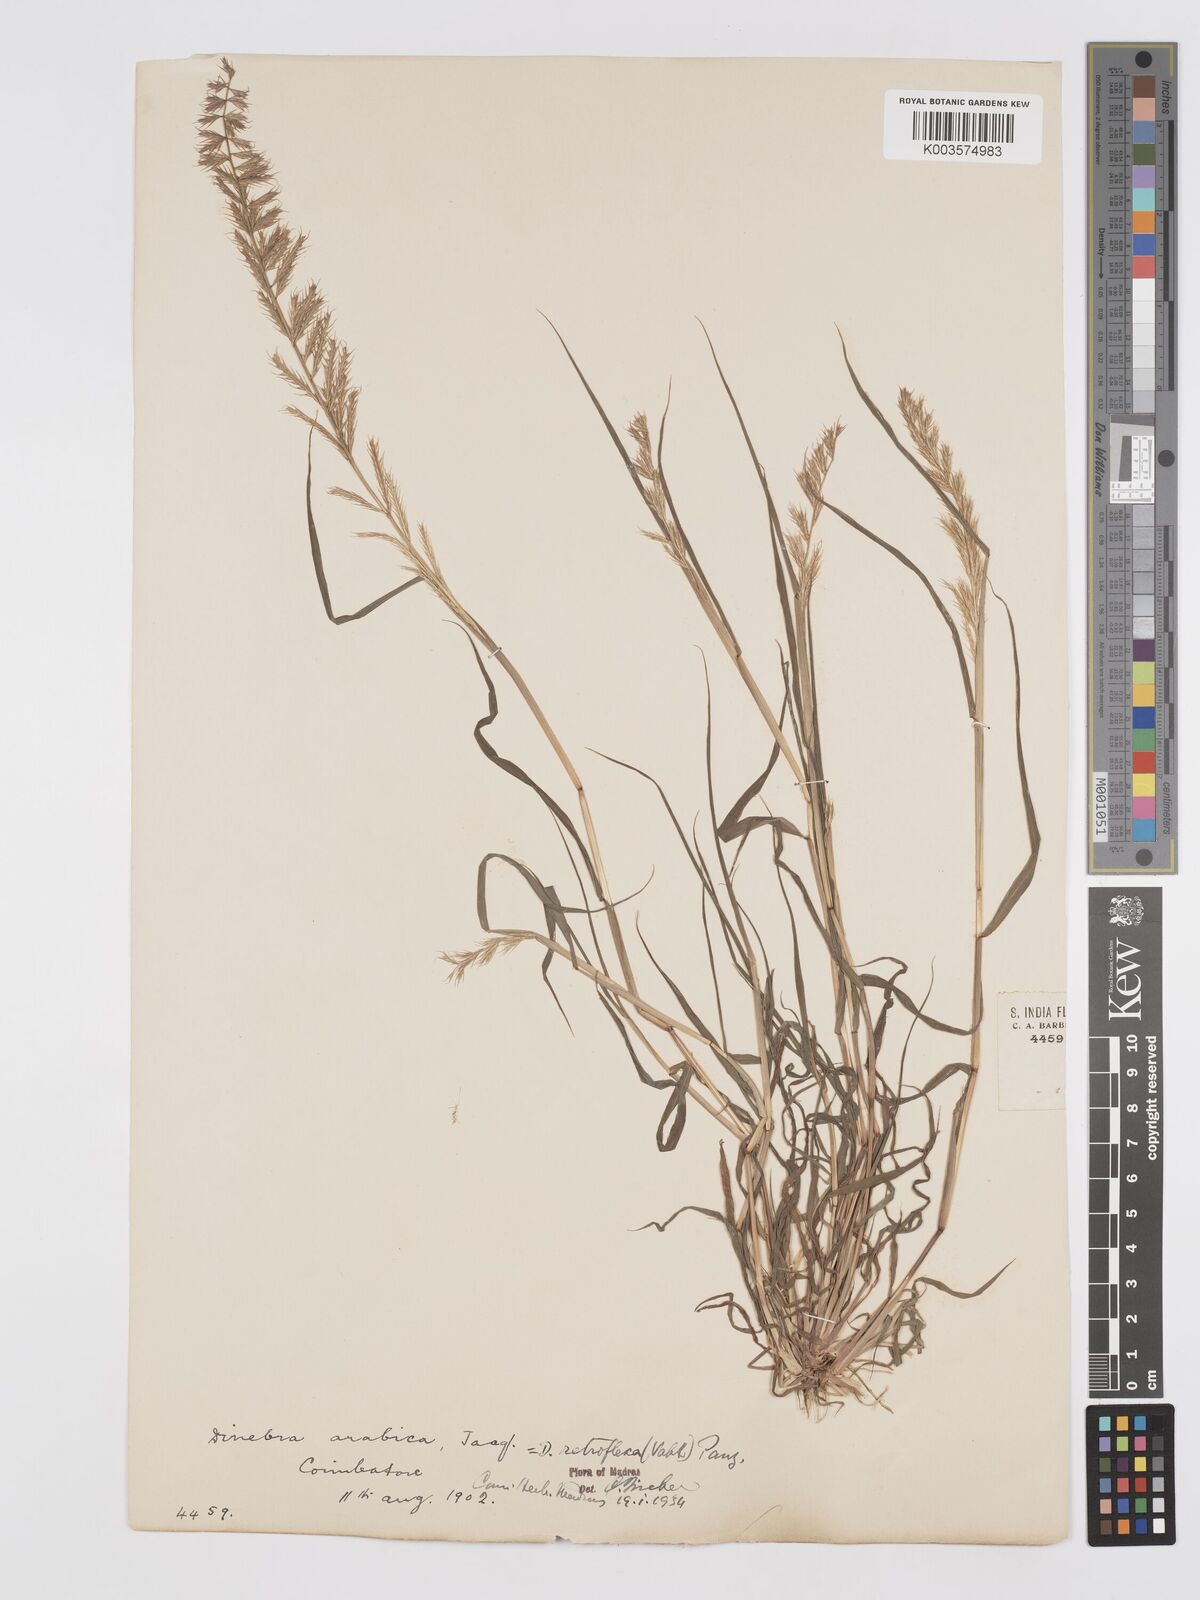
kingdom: Plantae
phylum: Tracheophyta
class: Liliopsida
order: Poales
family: Poaceae
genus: Dinebra
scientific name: Dinebra retroflexa
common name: Viper grass
